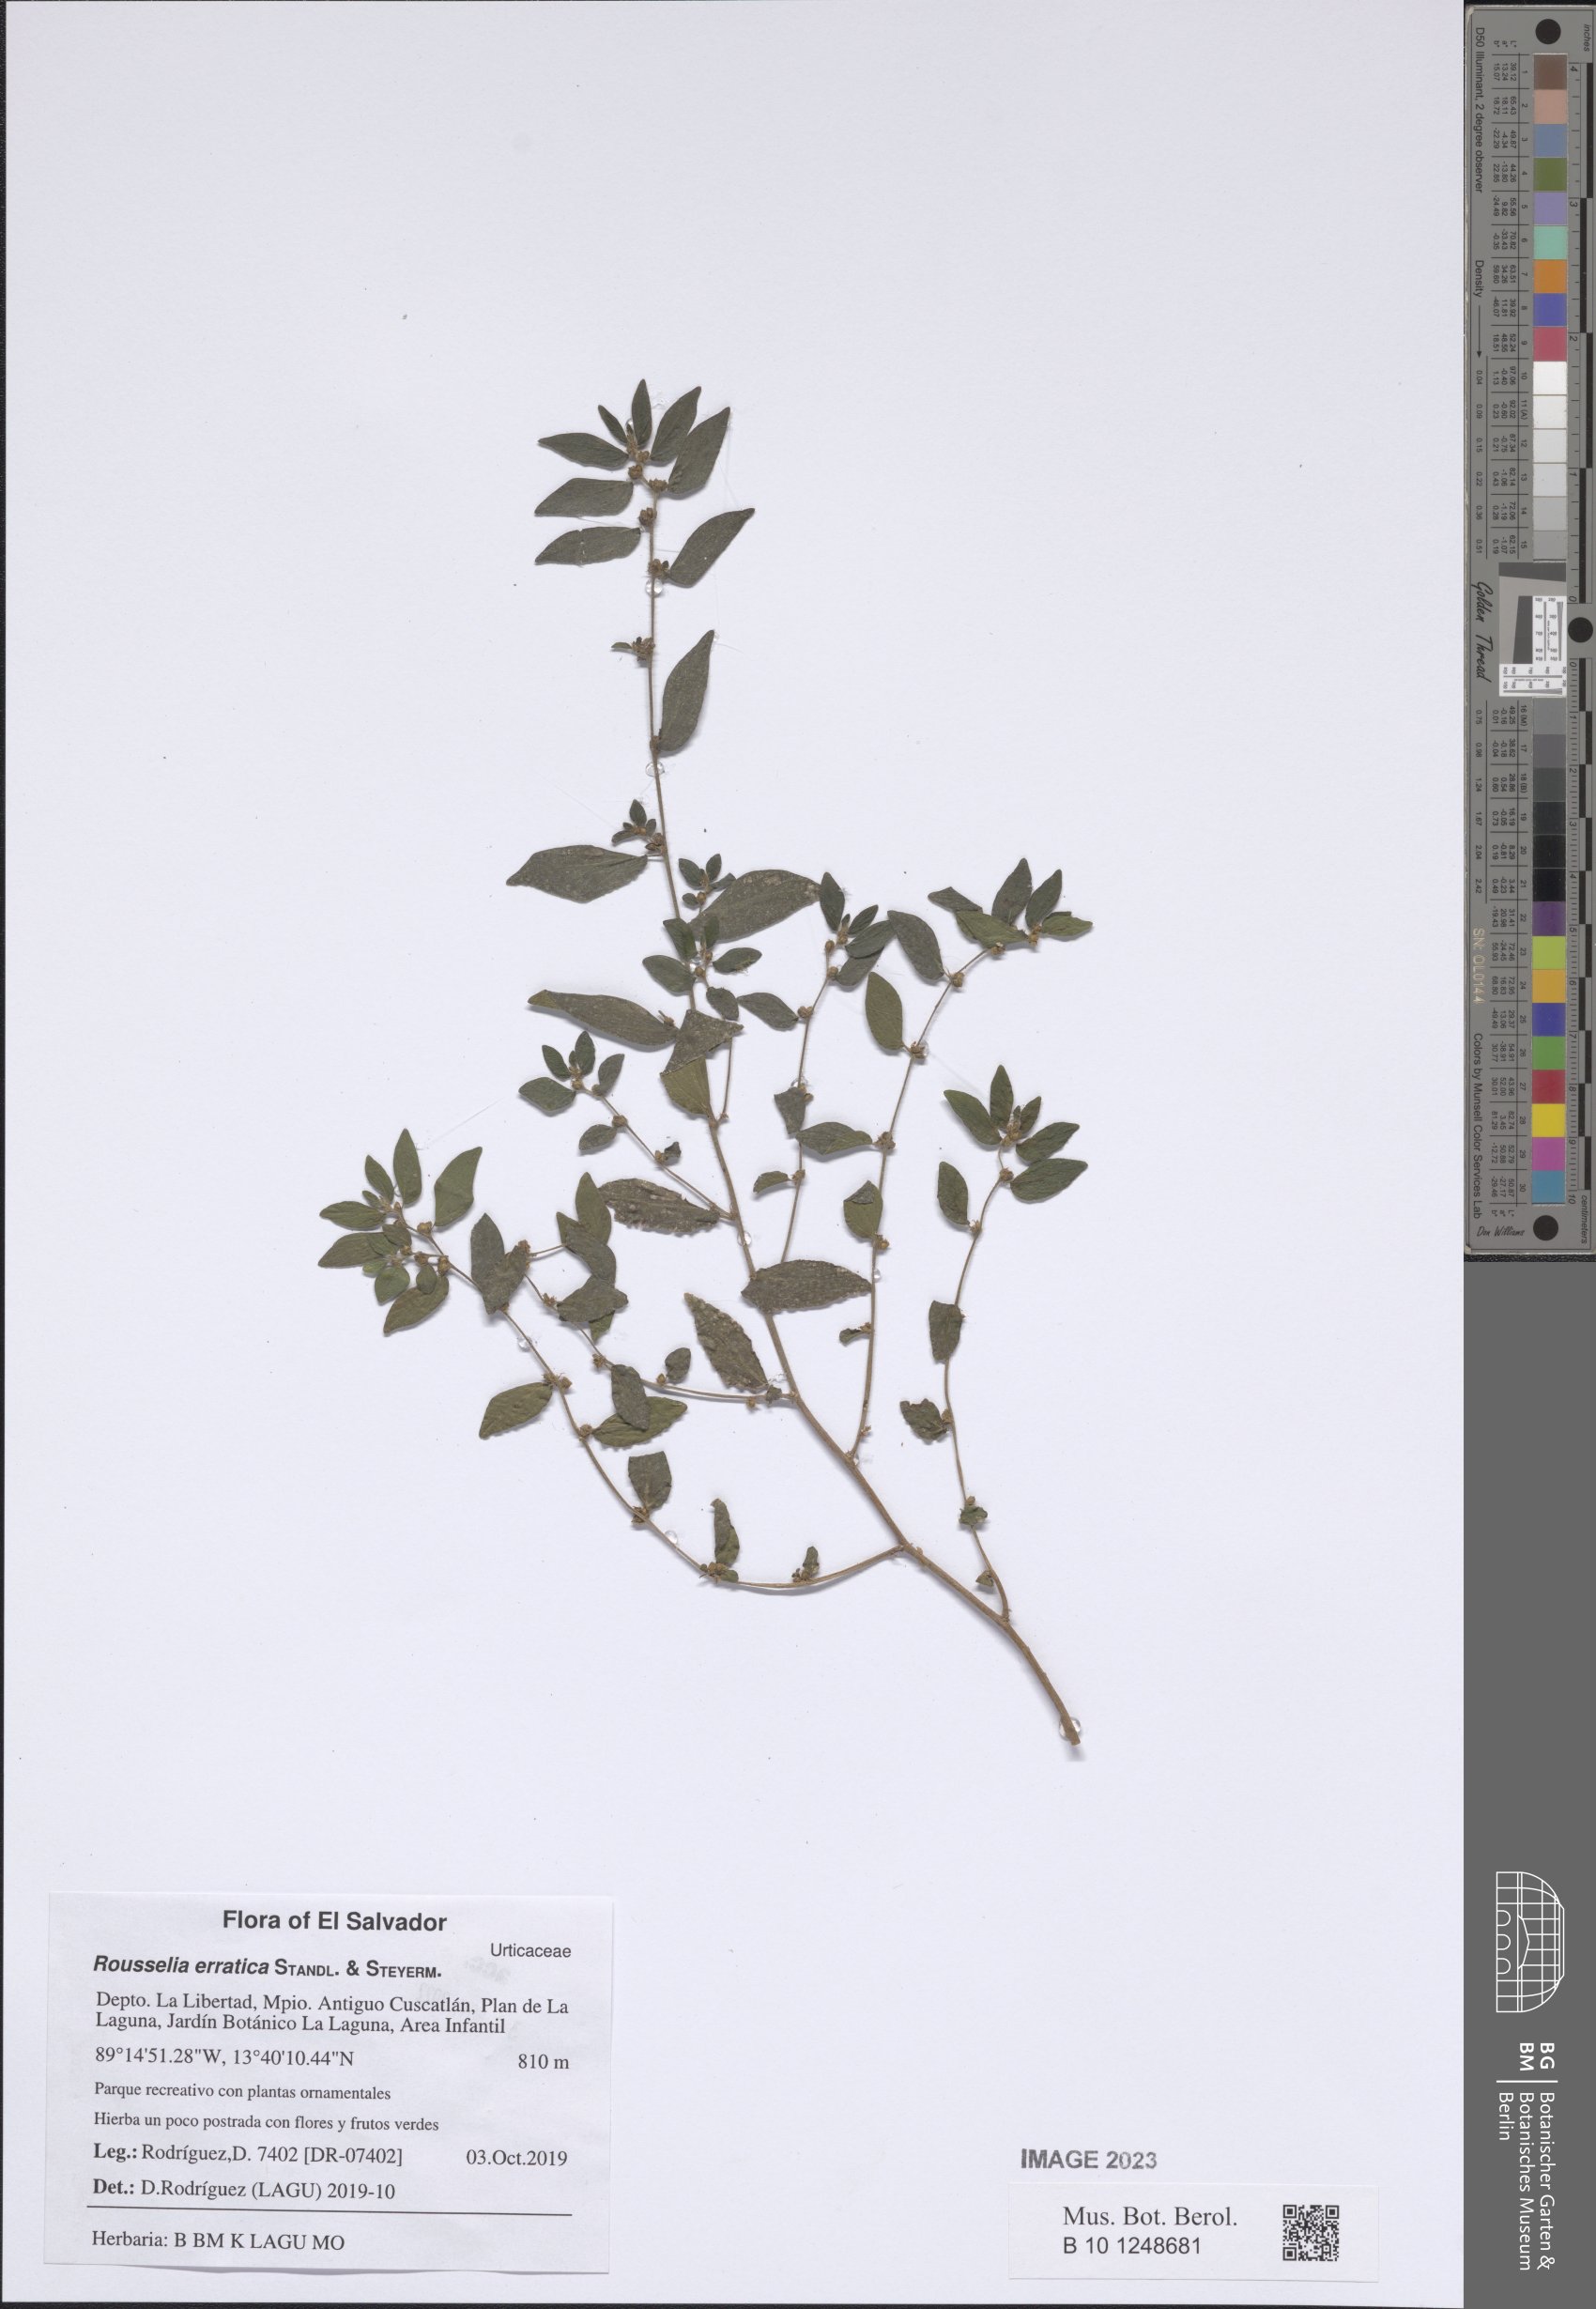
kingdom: Plantae
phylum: Tracheophyta
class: Magnoliopsida
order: Rosales
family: Urticaceae
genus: Rousselia
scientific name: Rousselia erratica
